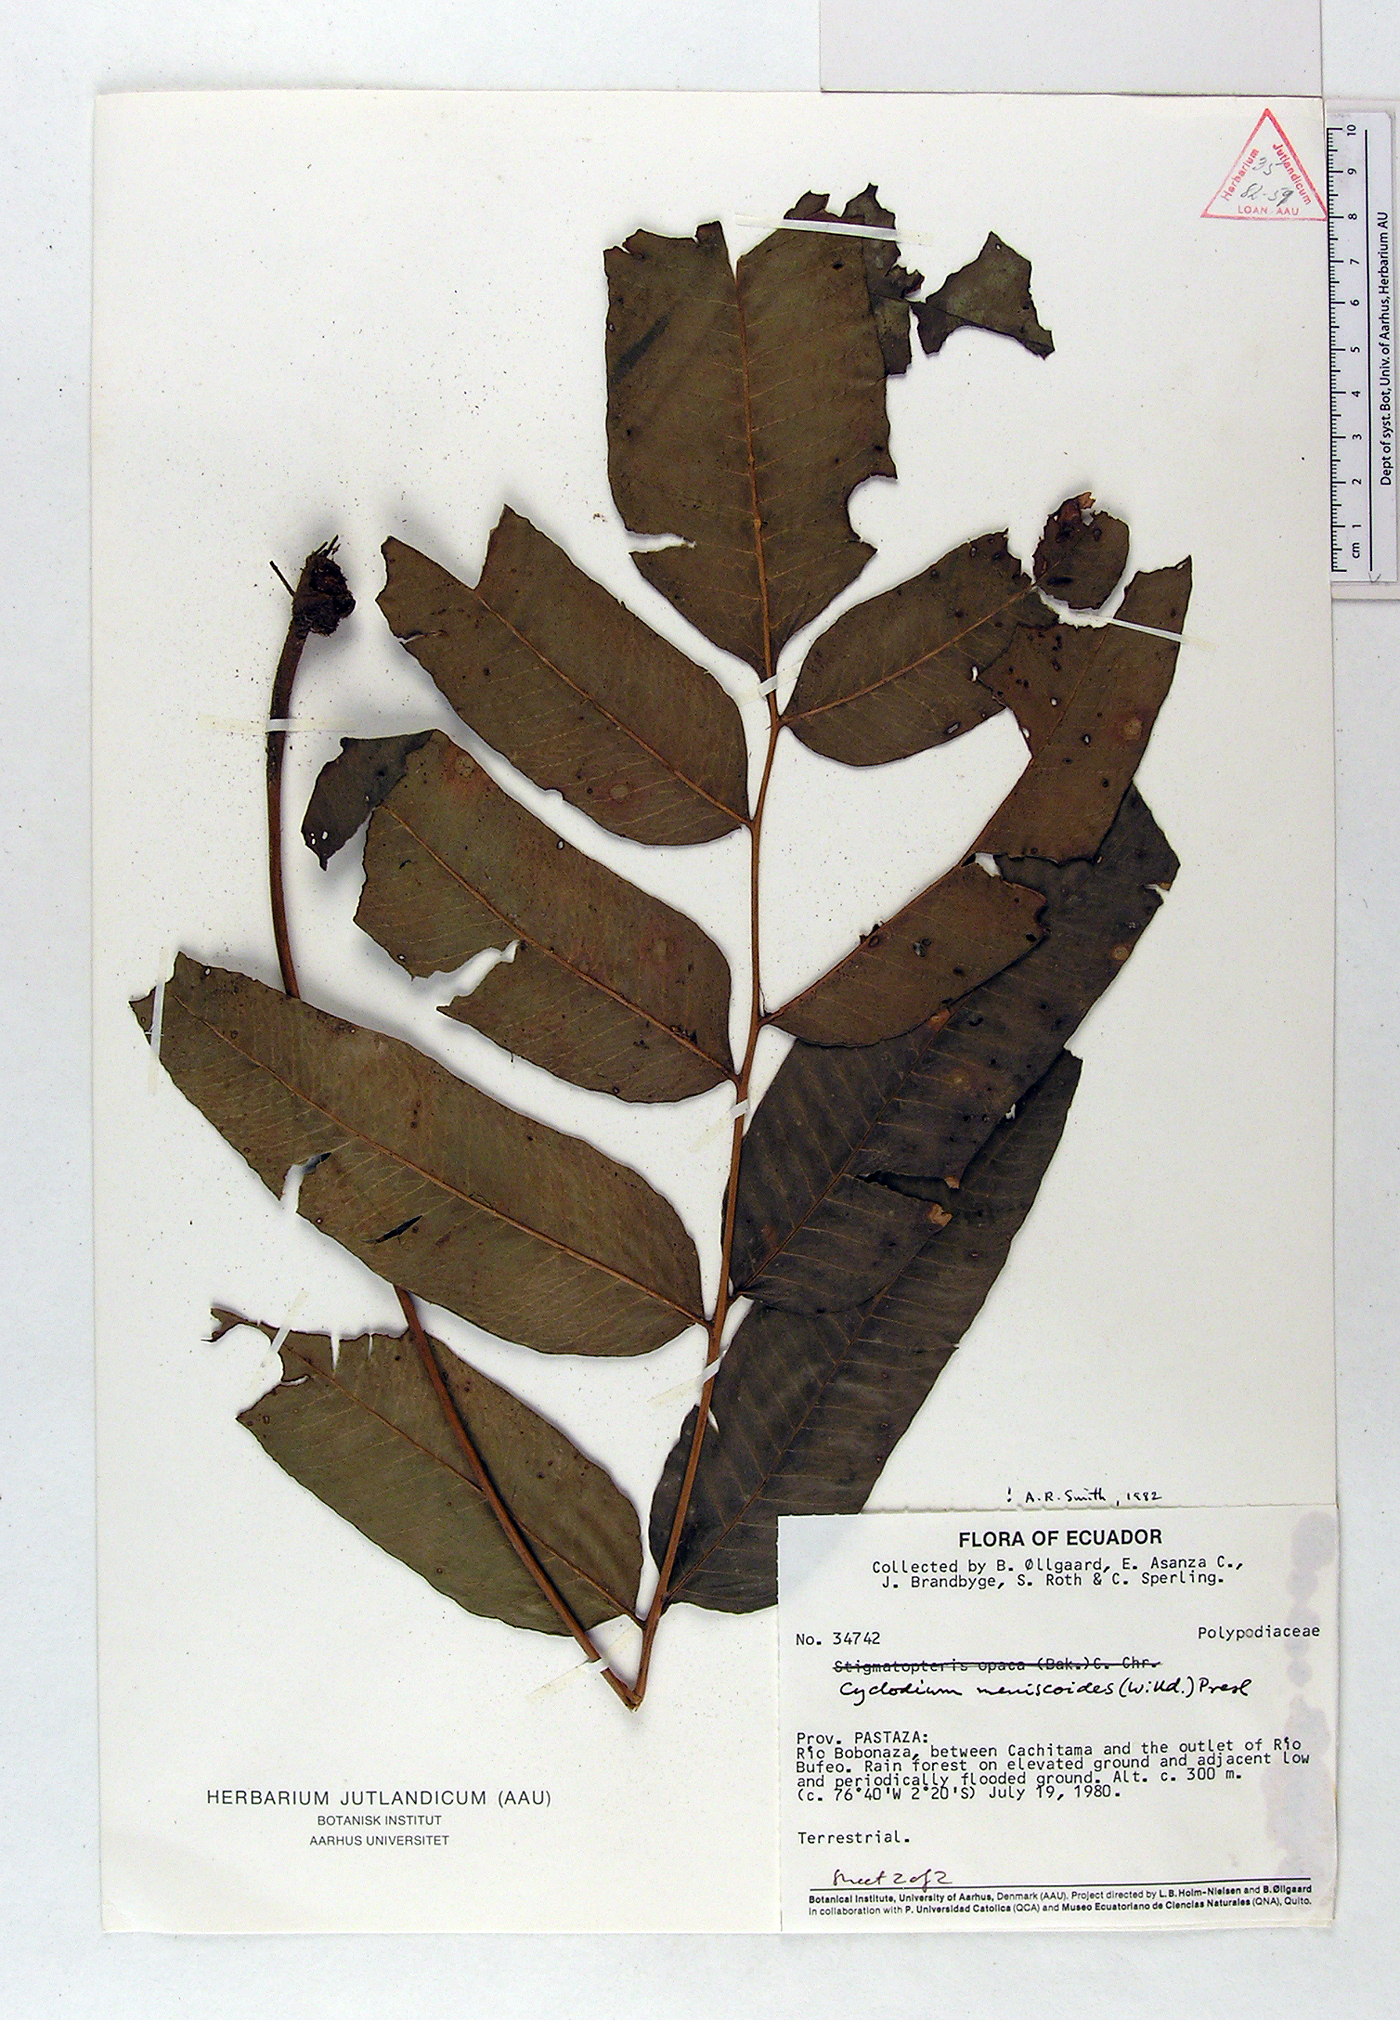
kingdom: Plantae
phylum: Tracheophyta
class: Polypodiopsida
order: Polypodiales
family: Dryopteridaceae
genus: Cyclodium
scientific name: Cyclodium meniscioides
